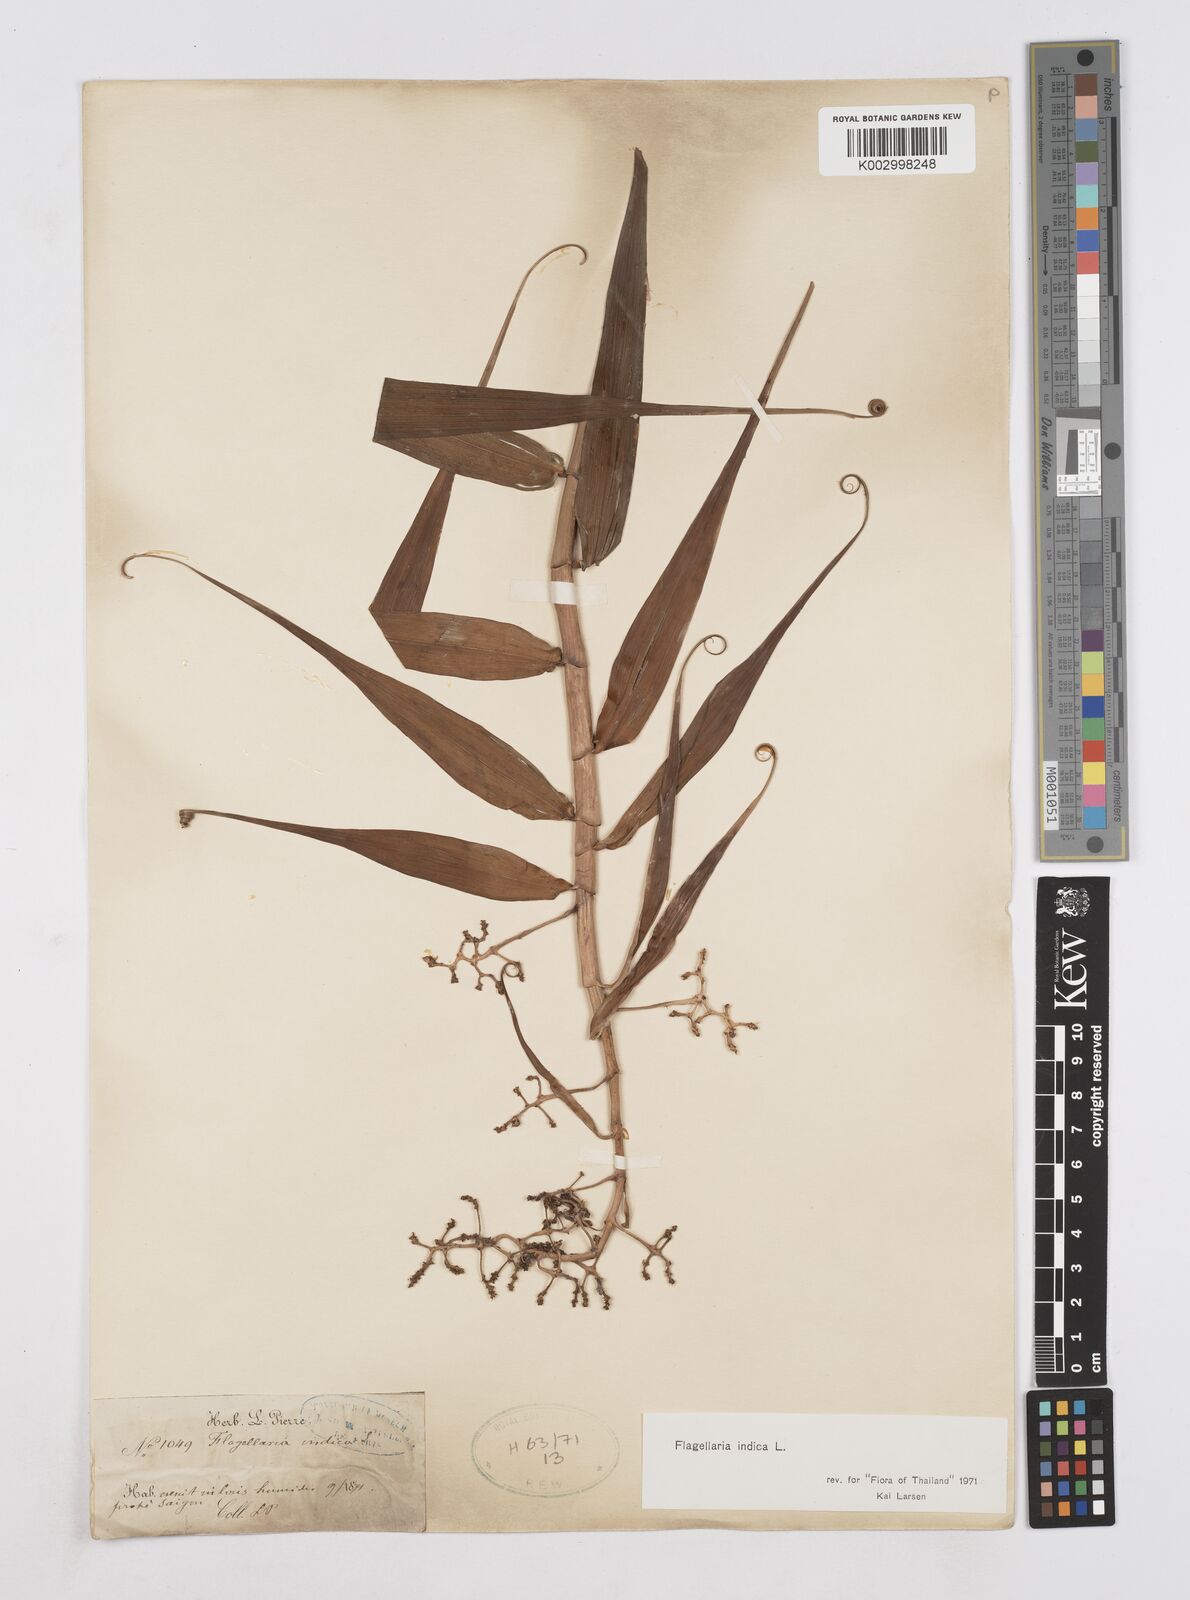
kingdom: Plantae
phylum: Tracheophyta
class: Liliopsida
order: Poales
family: Flagellariaceae
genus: Flagellaria
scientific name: Flagellaria indica
